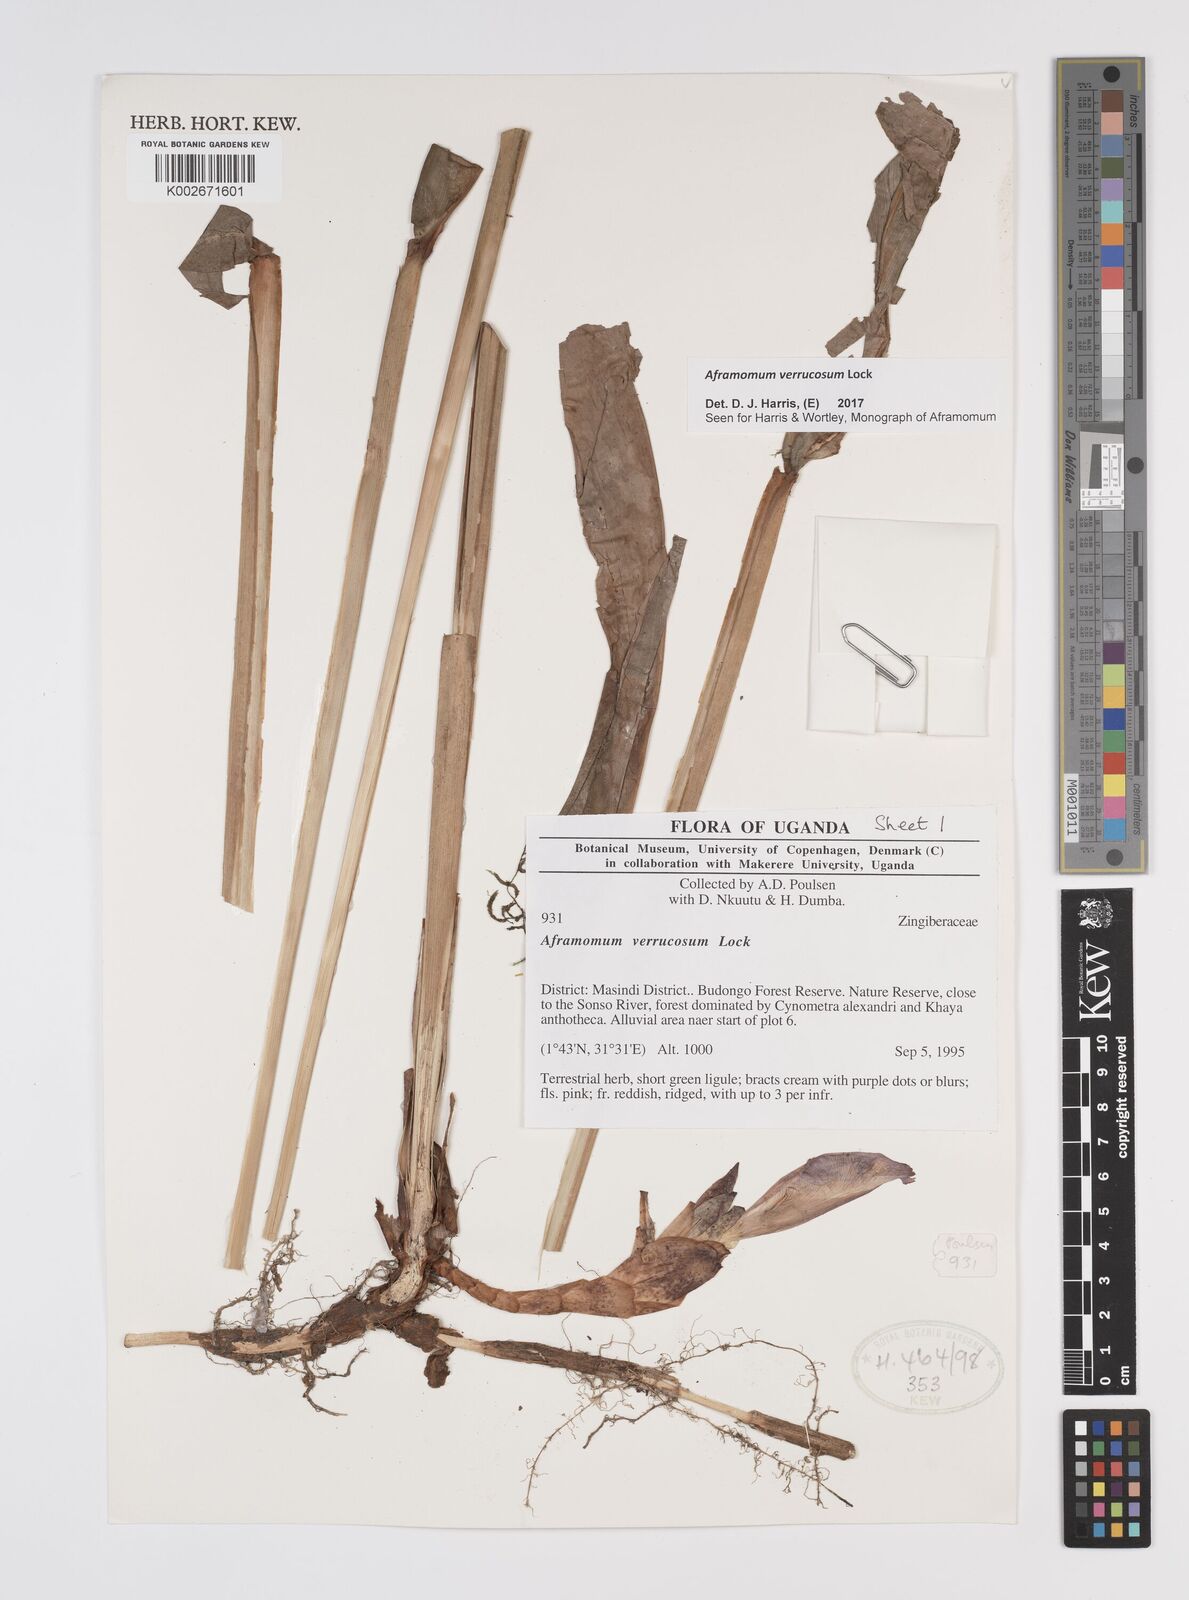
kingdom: Plantae
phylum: Tracheophyta
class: Liliopsida
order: Zingiberales
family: Zingiberaceae
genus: Aframomum
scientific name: Aframomum verrucosum
